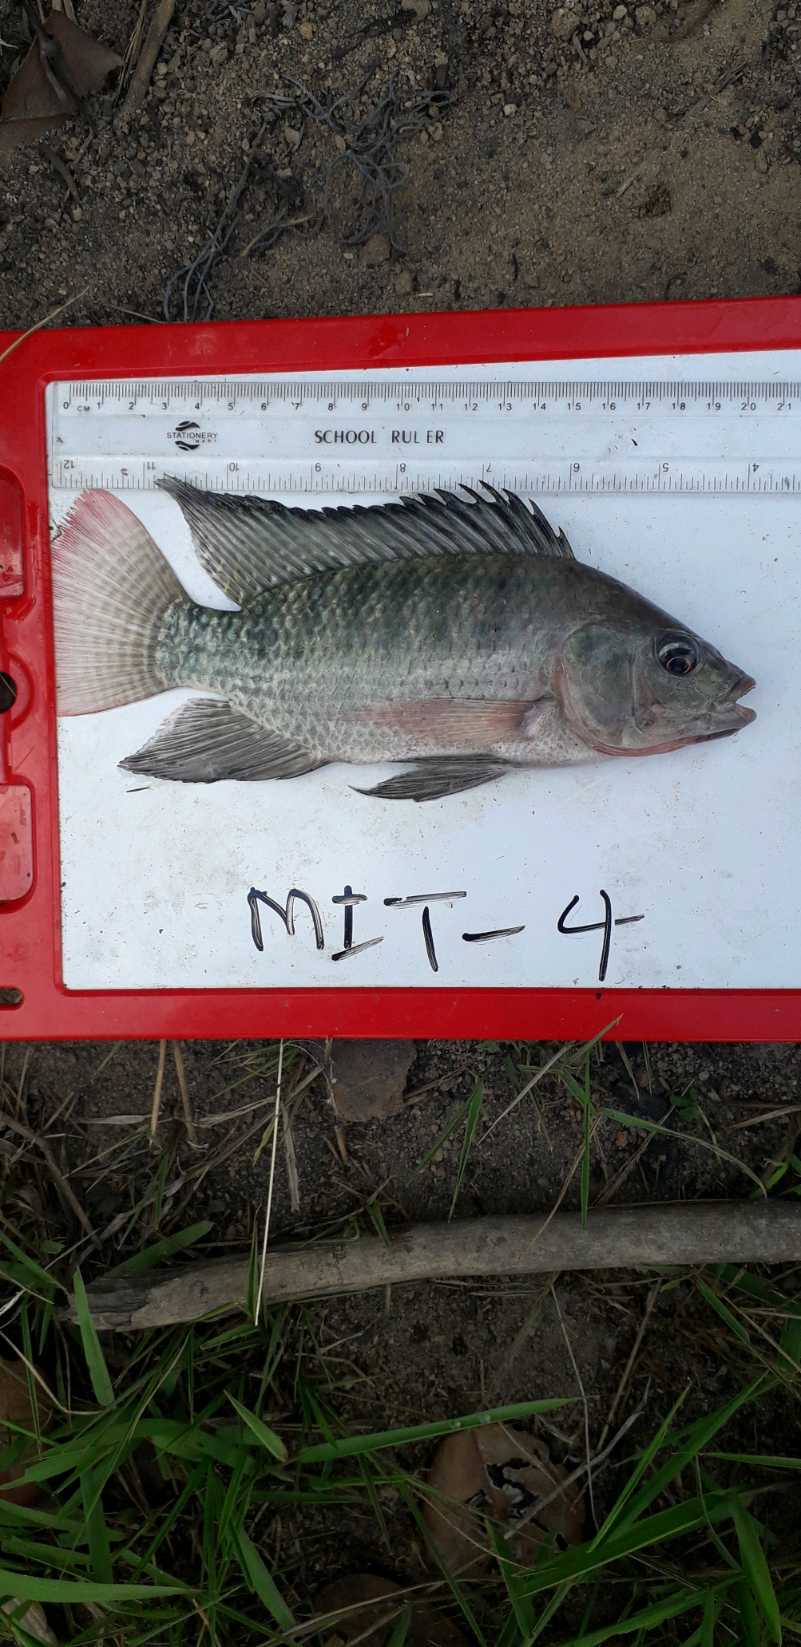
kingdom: Animalia
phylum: Chordata
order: Perciformes
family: Cichlidae
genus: Oreochromis
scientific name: Oreochromis niloticus
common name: Nile tilapia
